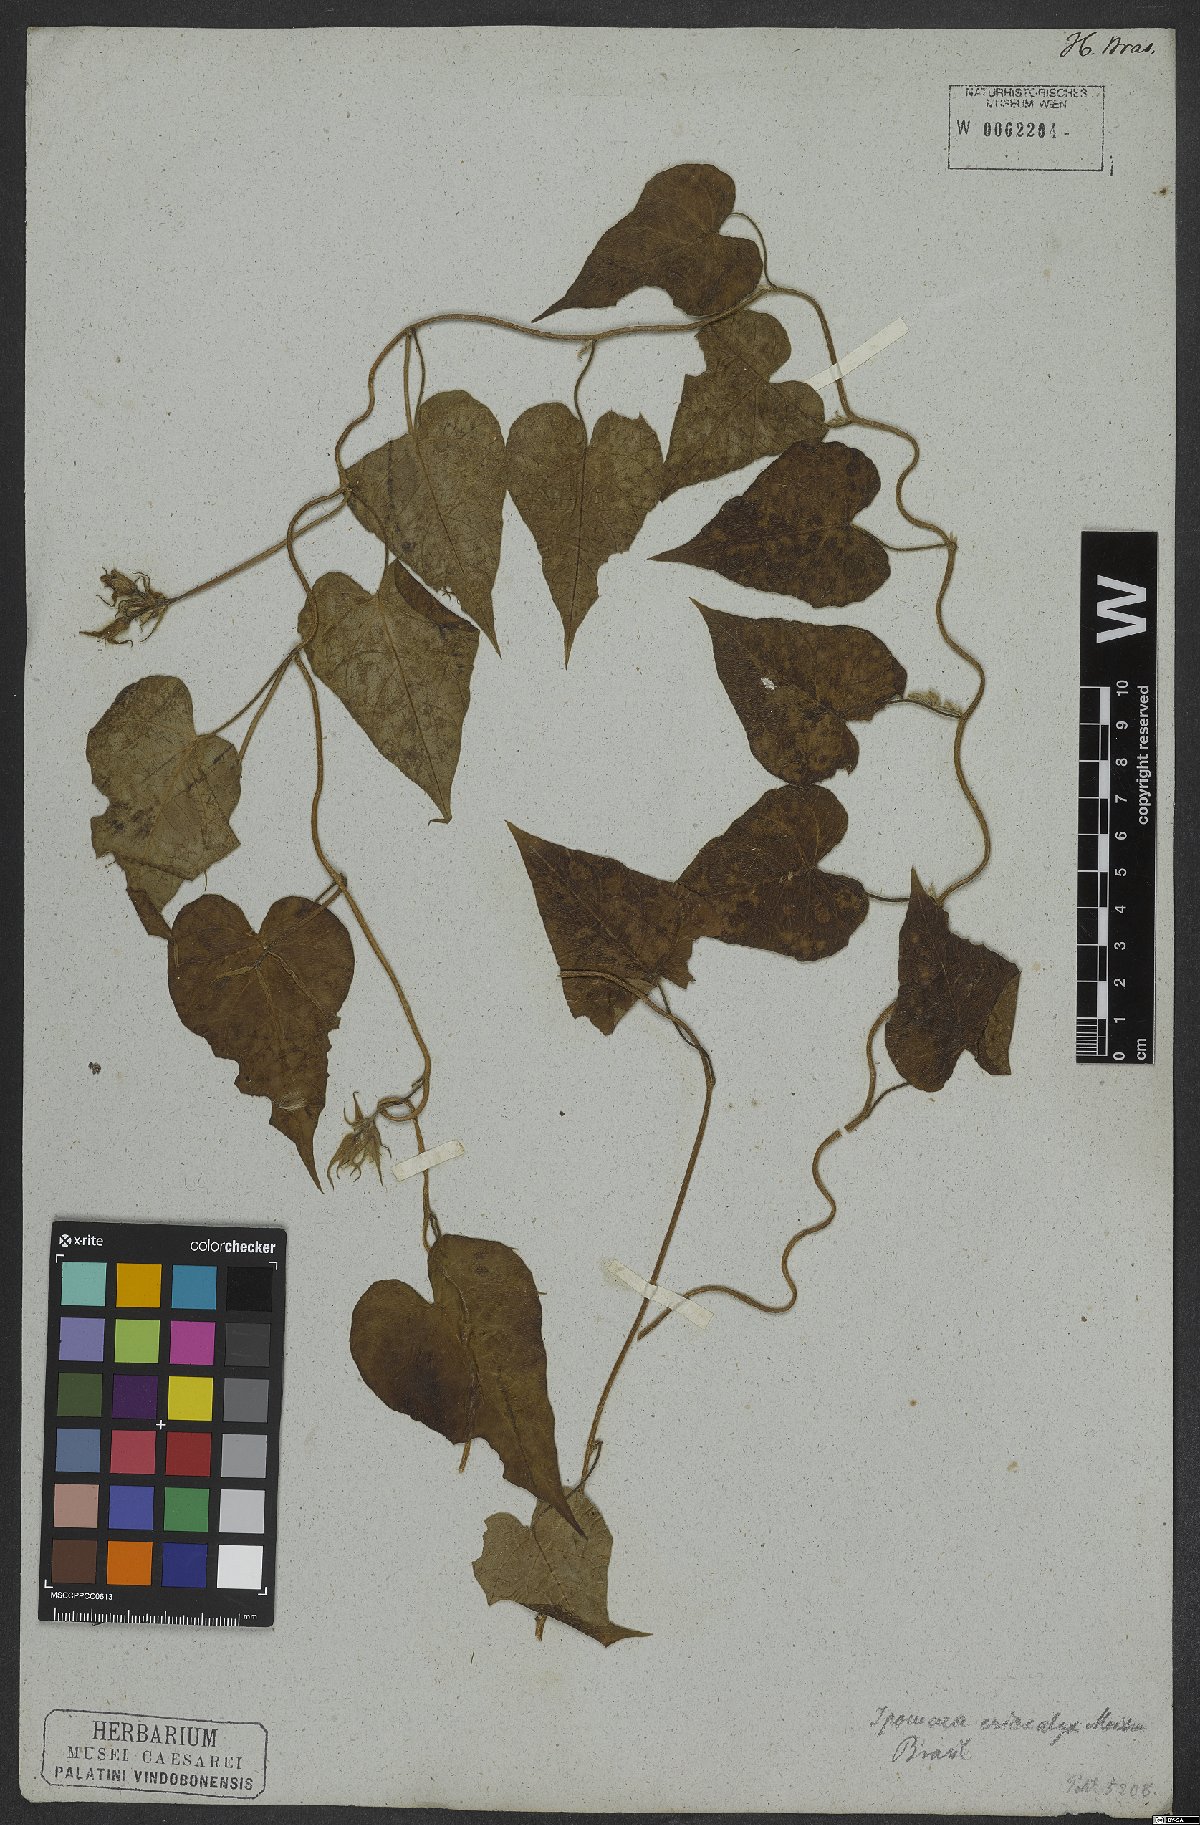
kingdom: Plantae
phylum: Tracheophyta
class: Magnoliopsida
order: Solanales
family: Convolvulaceae
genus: Ipomoea
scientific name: Ipomoea eriocalyx
